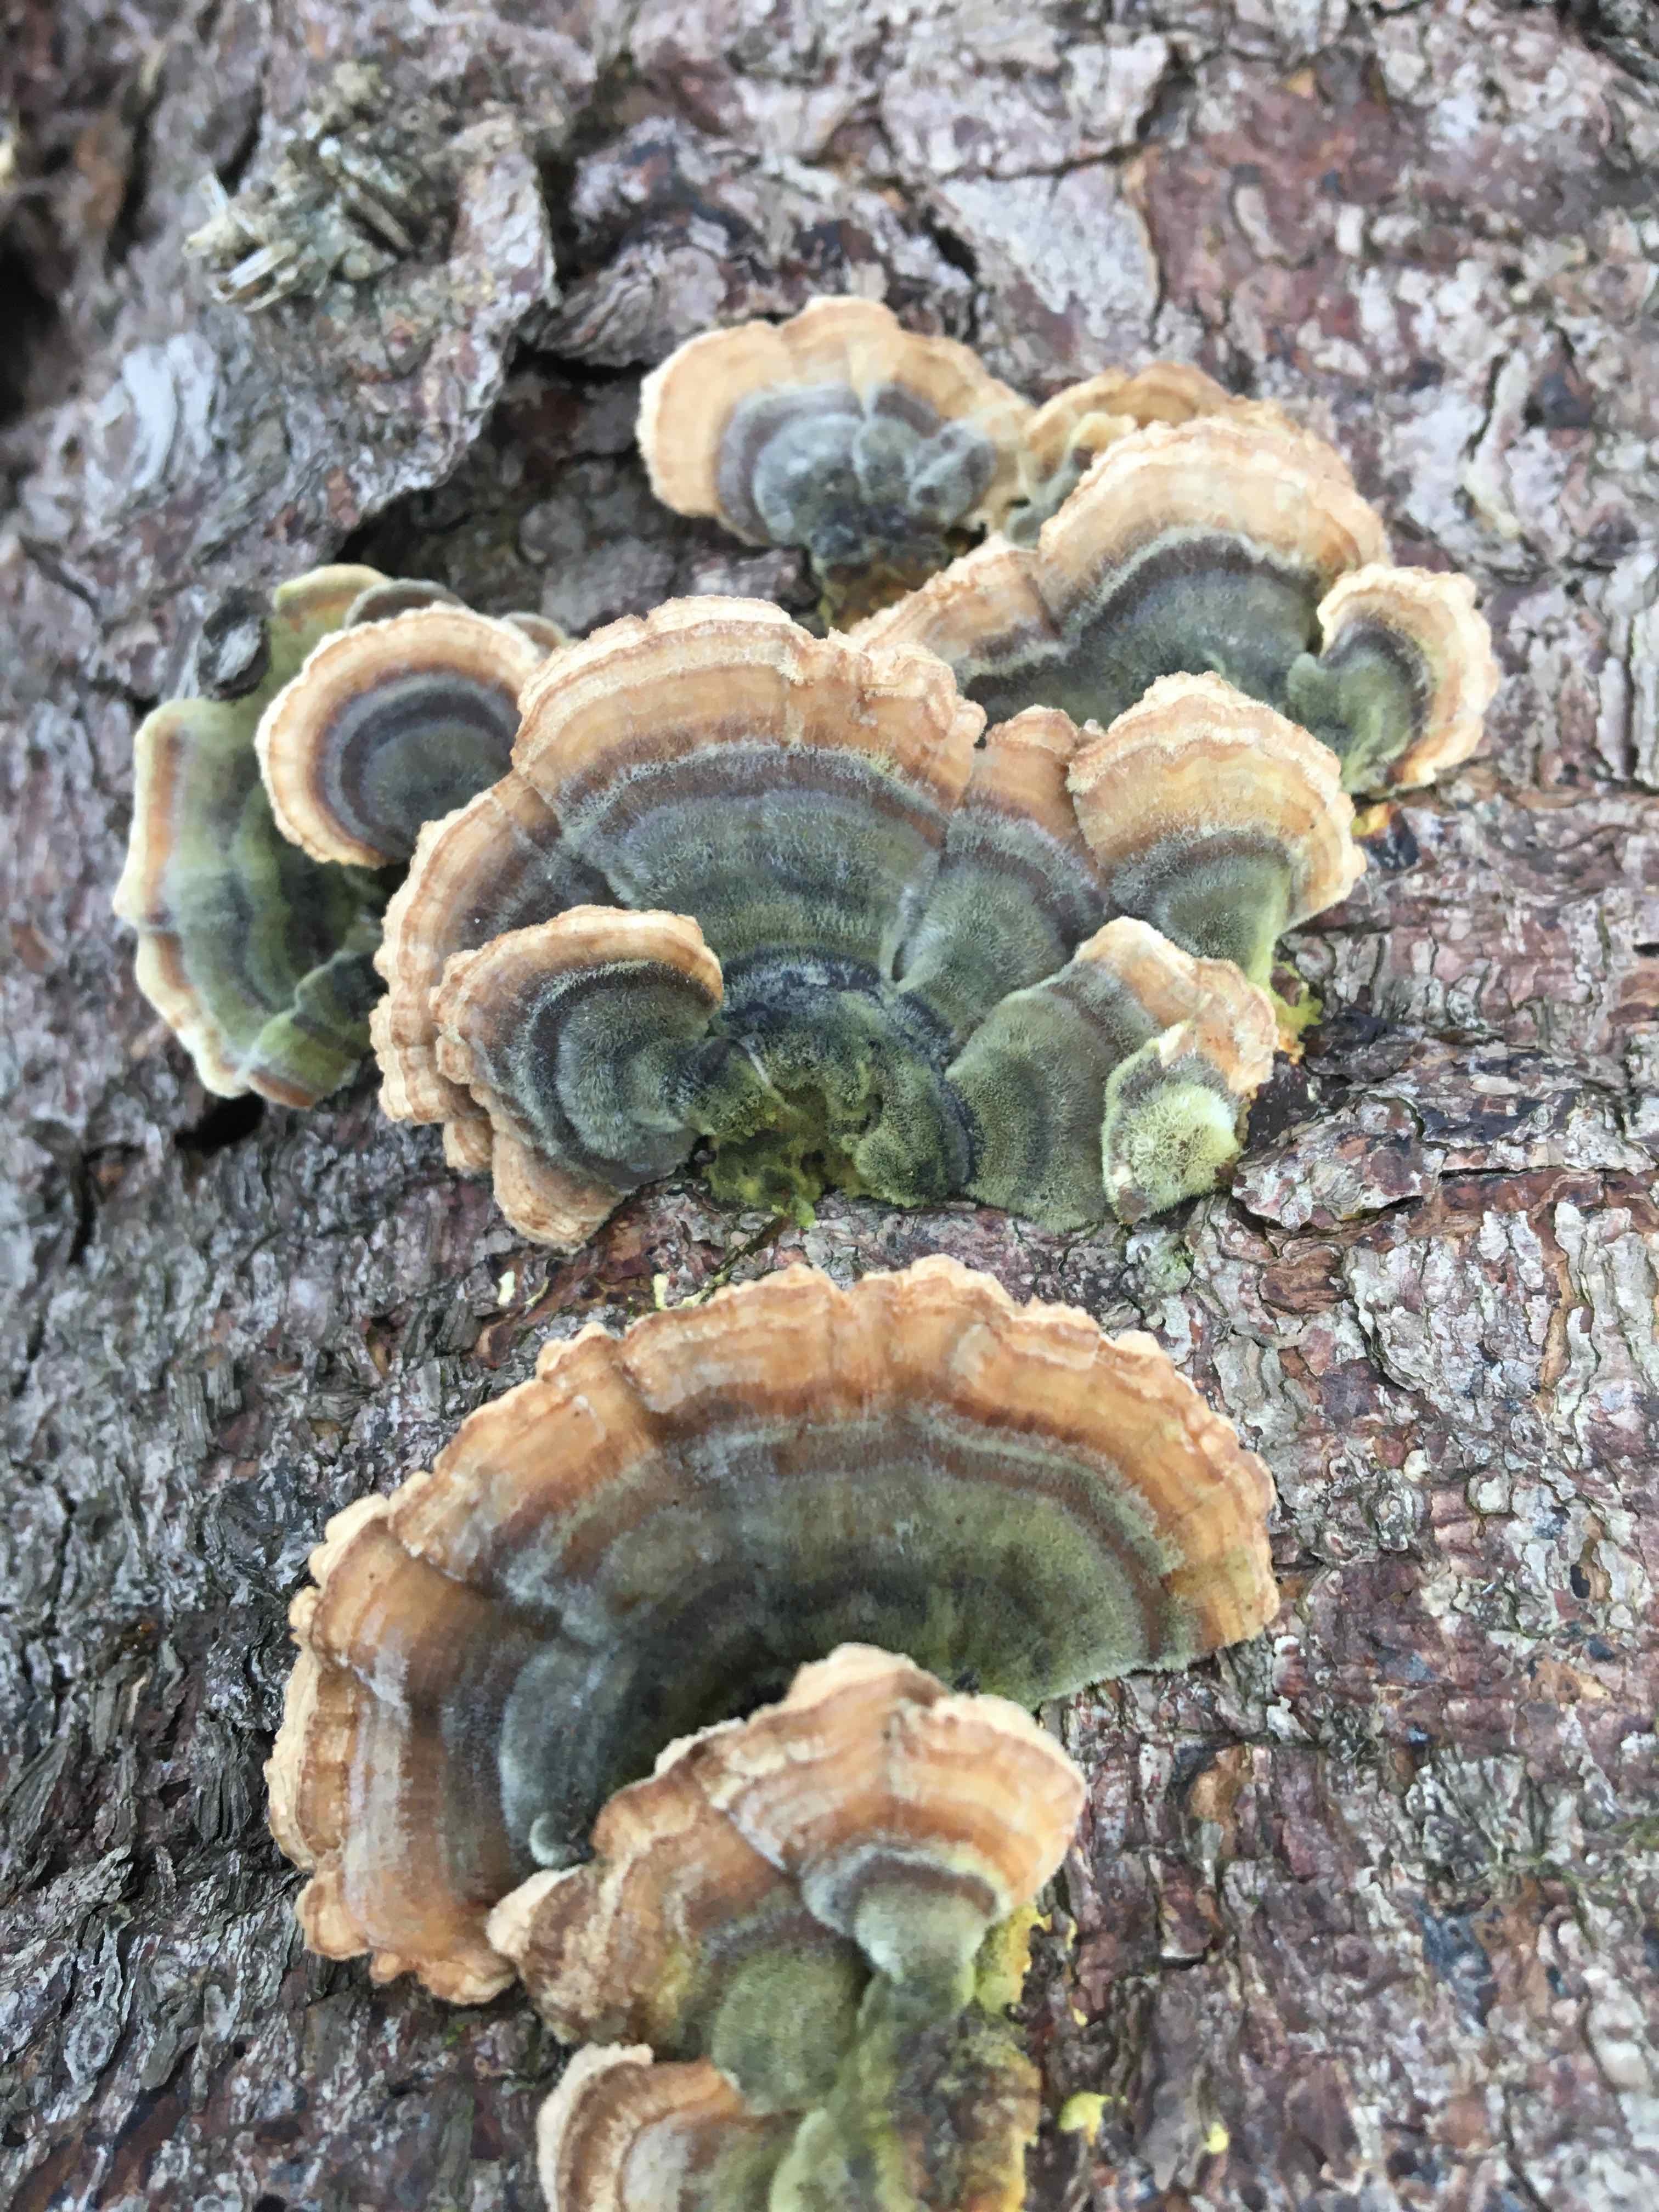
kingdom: Fungi
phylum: Basidiomycota
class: Agaricomycetes
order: Polyporales
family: Polyporaceae
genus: Trametes
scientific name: Trametes versicolor
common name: broget læderporesvamp
